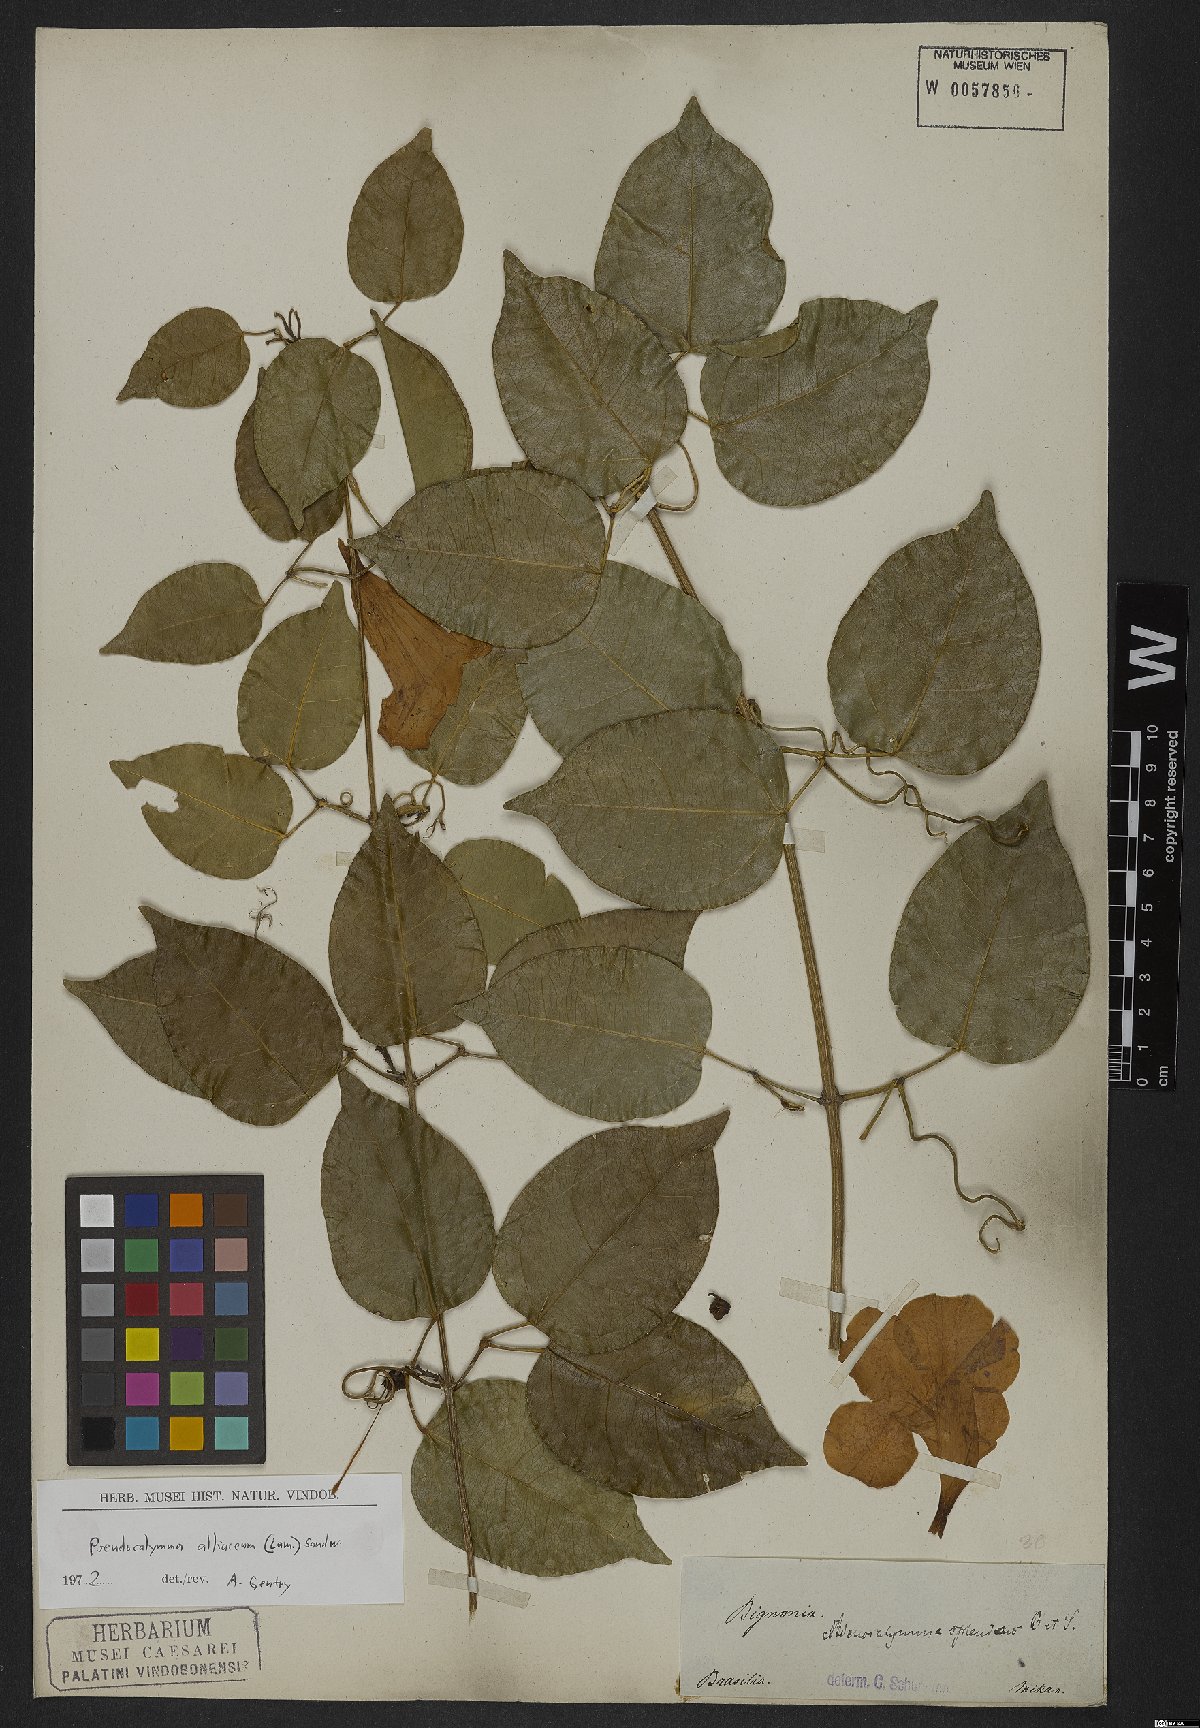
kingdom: Plantae
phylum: Tracheophyta
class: Magnoliopsida
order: Lamiales
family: Bignoniaceae
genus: Mansoa
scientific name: Mansoa alliacea
